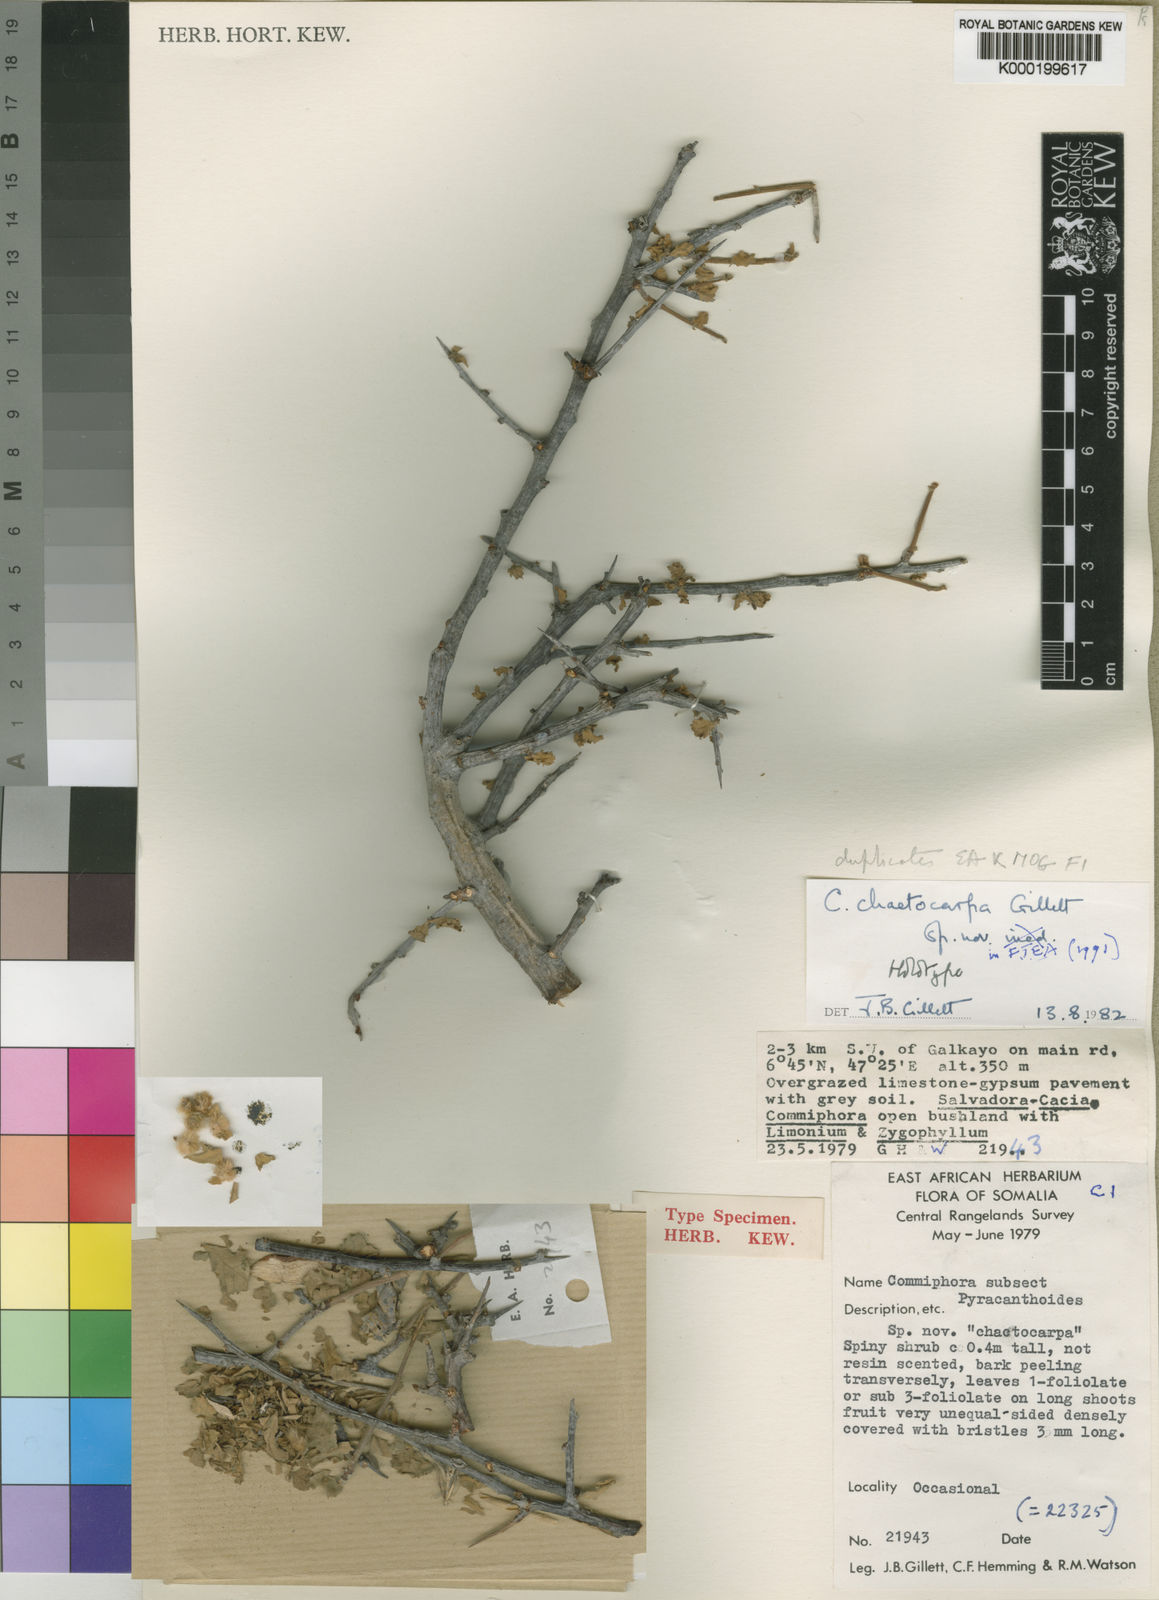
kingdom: Plantae
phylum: Tracheophyta
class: Magnoliopsida
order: Sapindales
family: Burseraceae
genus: Commiphora
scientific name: Commiphora chaetocarpa
